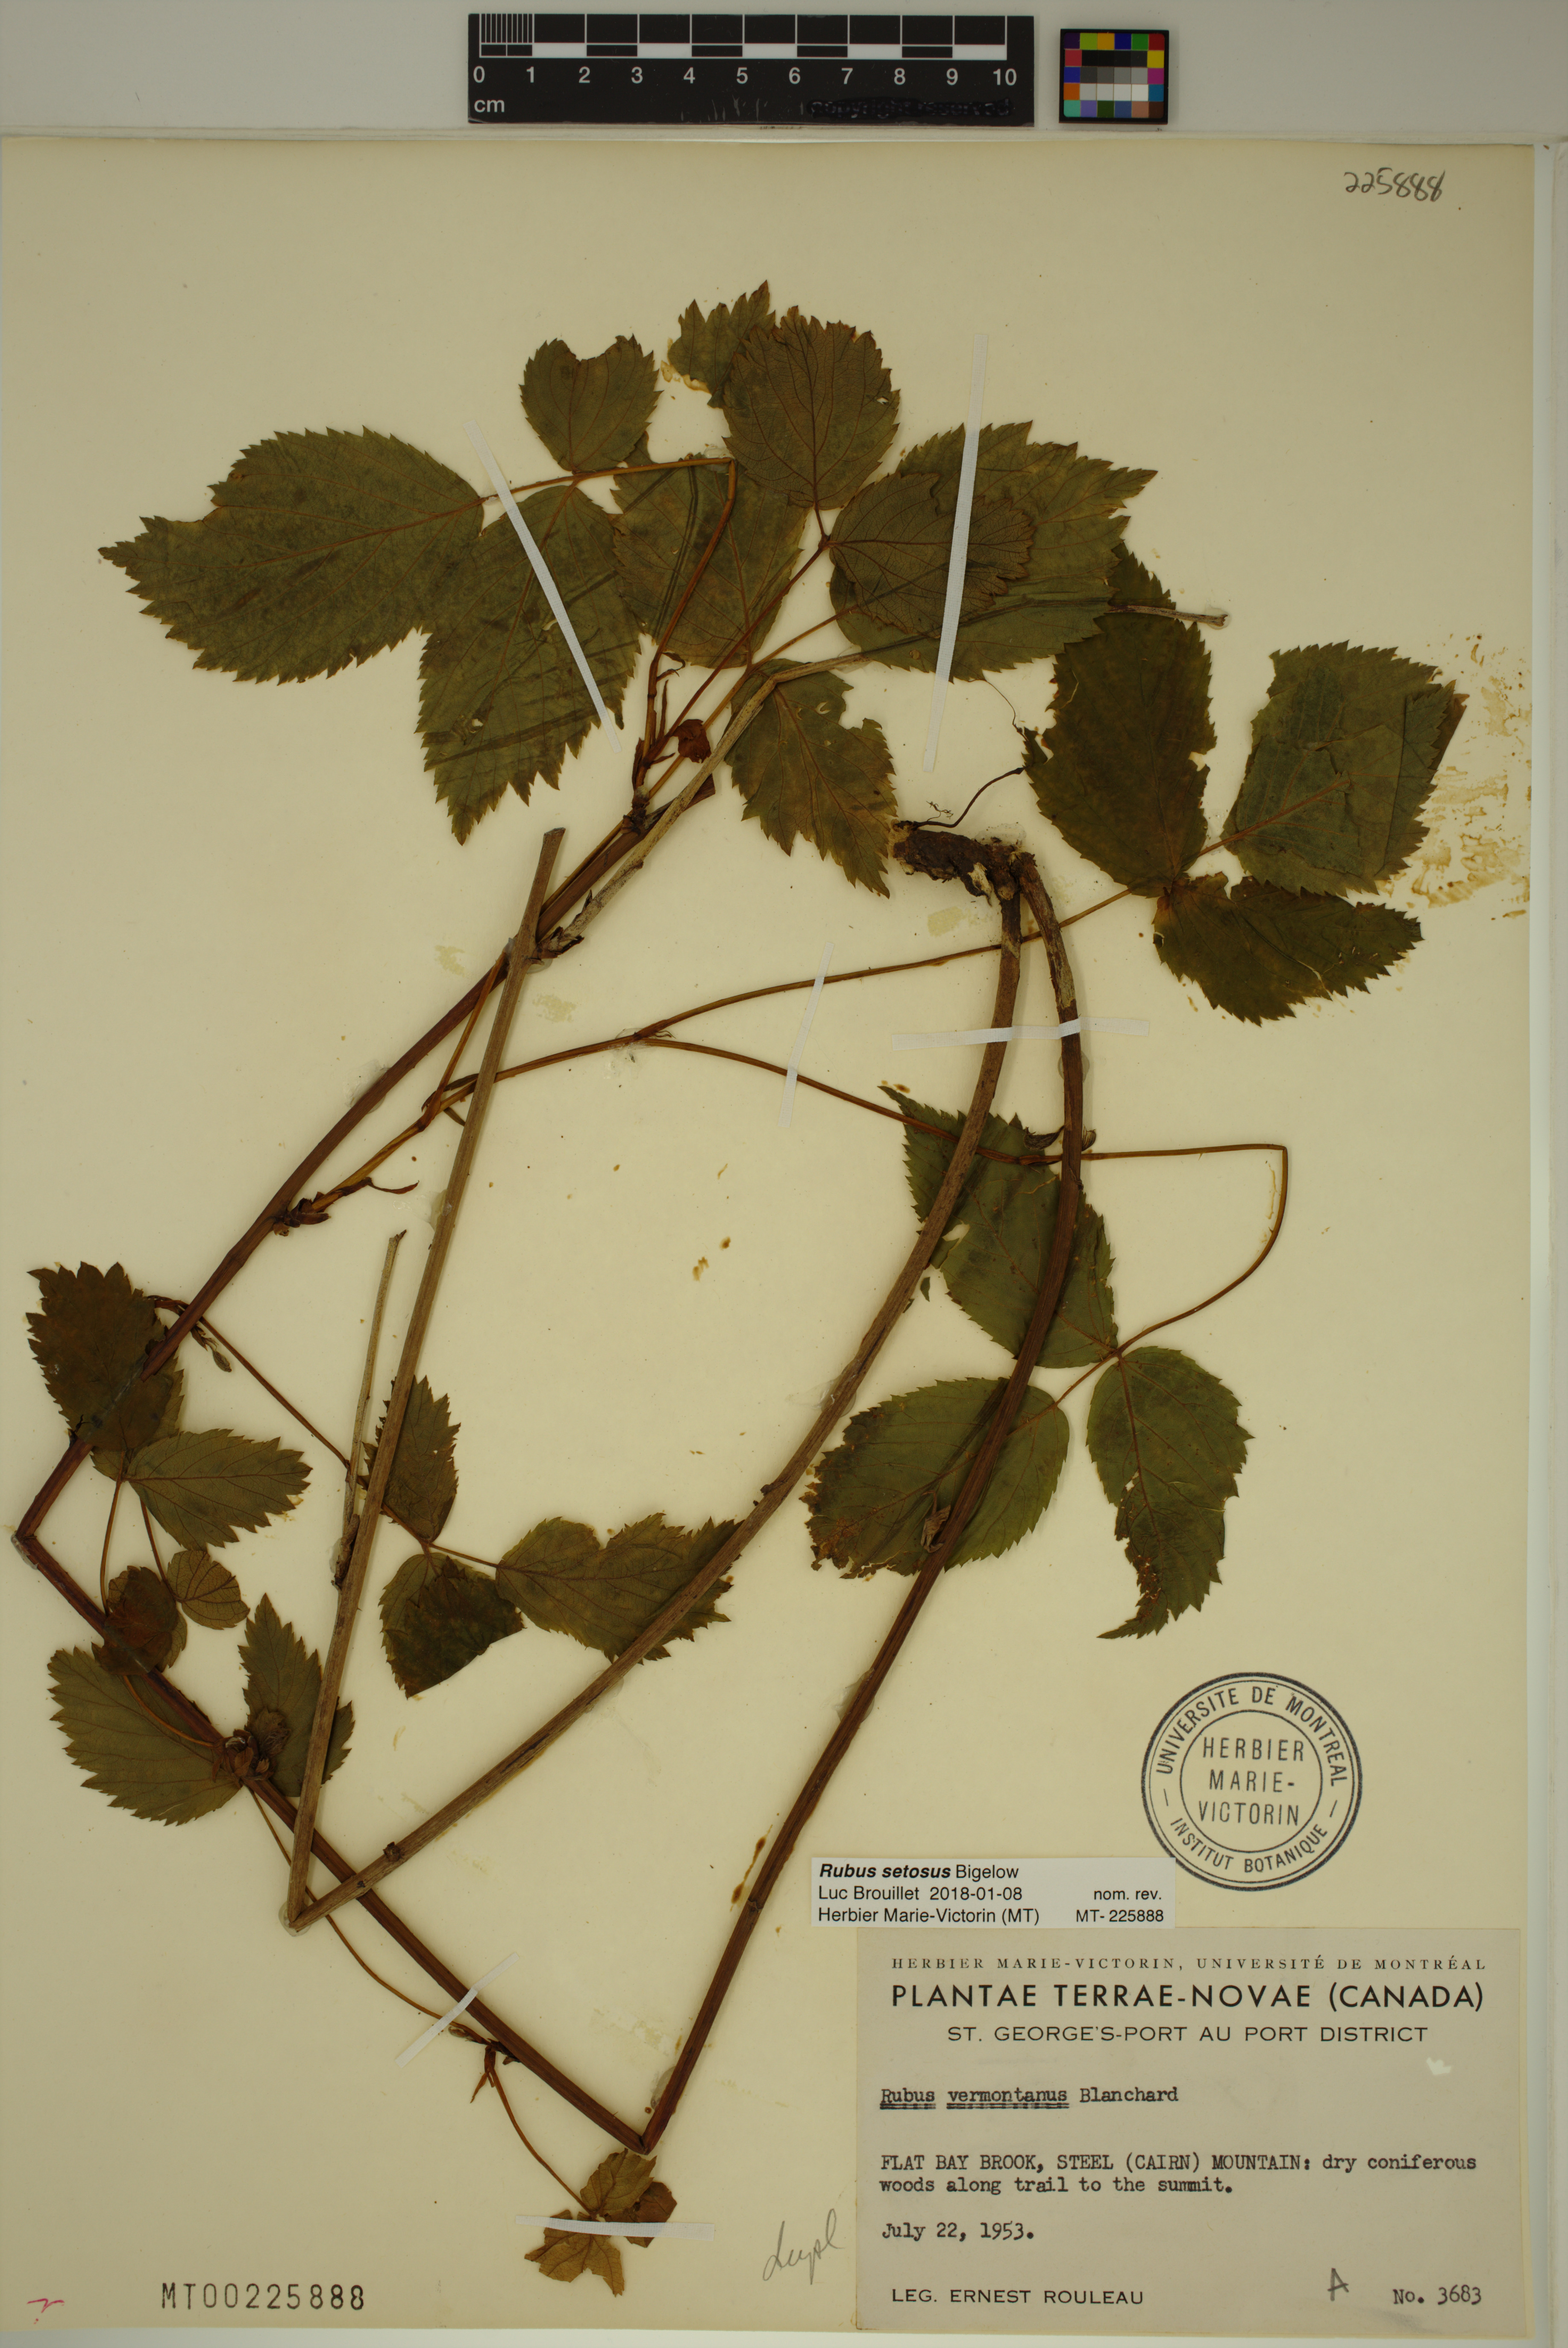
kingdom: Plantae
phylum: Tracheophyta
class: Magnoliopsida
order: Rosales
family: Rosaceae
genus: Rubus
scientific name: Rubus setosus
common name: Bristly blackberry
